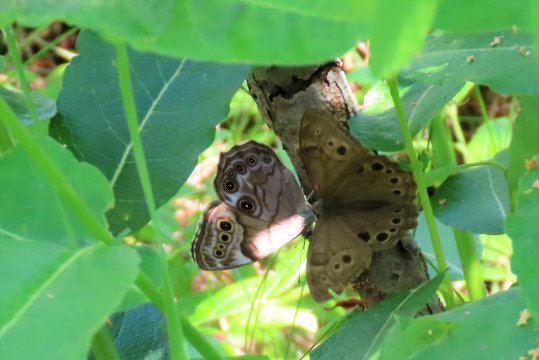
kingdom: Animalia
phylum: Arthropoda
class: Insecta
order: Lepidoptera
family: Nymphalidae
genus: Lethe
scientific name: Lethe anthedon
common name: Northern Pearly-Eye
